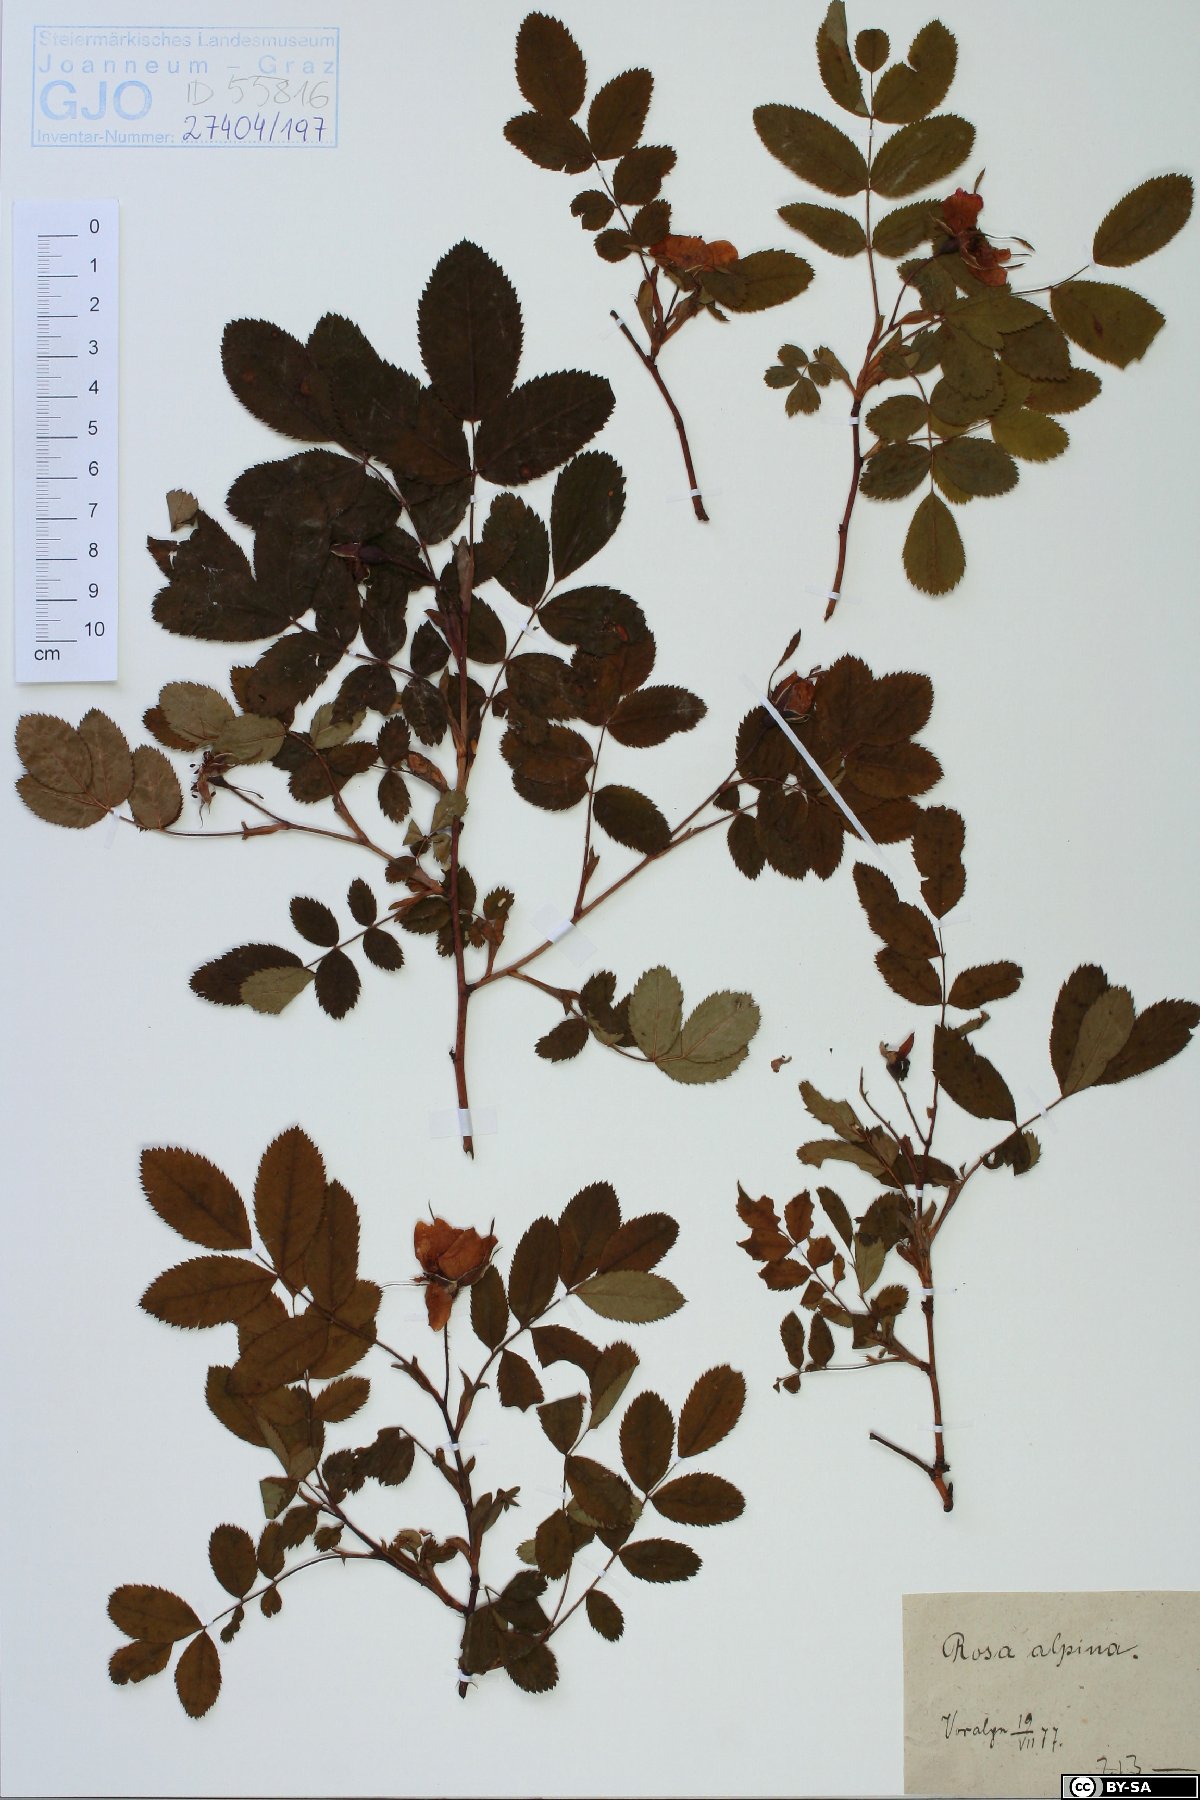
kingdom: Plantae
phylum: Tracheophyta
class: Magnoliopsida
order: Rosales
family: Rosaceae
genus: Rosa
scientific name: Rosa pendulina
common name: Alpine rose
